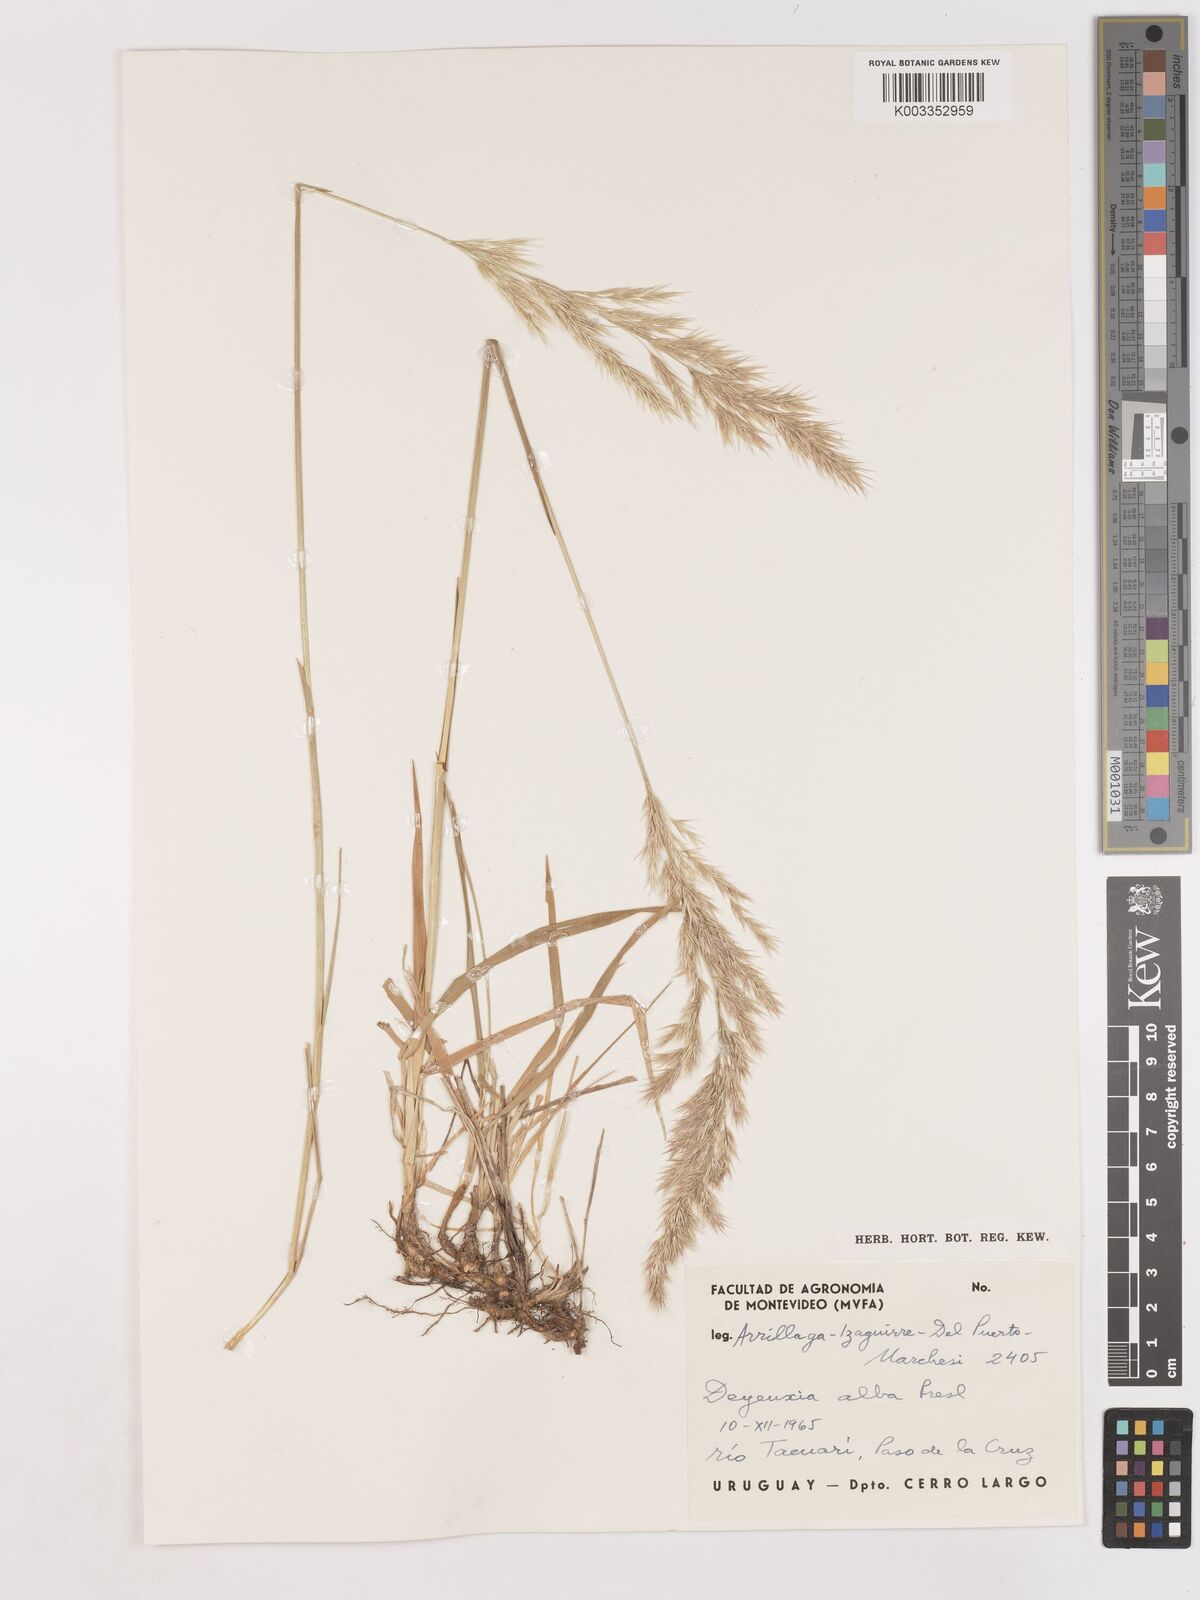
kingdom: Plantae
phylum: Tracheophyta
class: Liliopsida
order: Poales
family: Poaceae
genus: Cinnagrostis
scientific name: Cinnagrostis viridiflavescens
